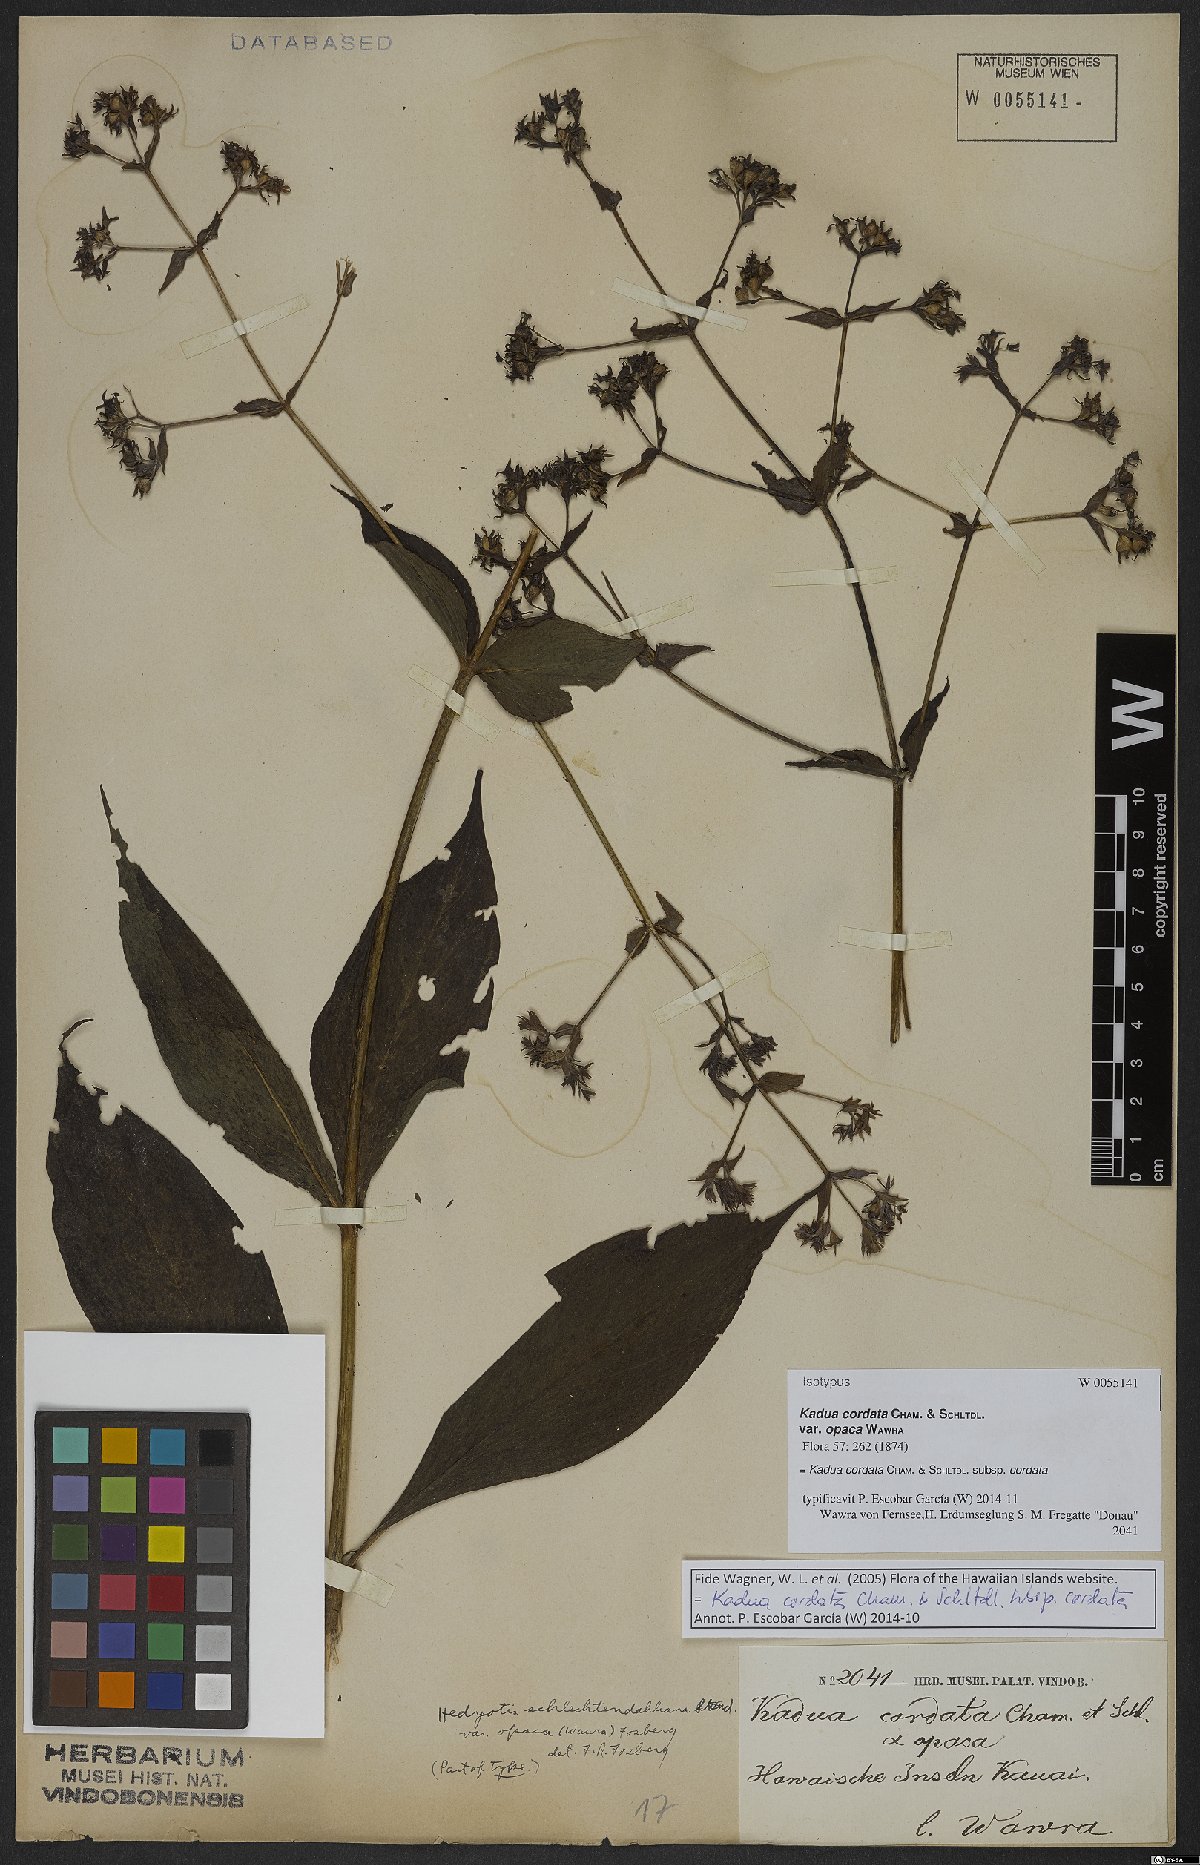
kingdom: Plantae
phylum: Tracheophyta
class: Magnoliopsida
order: Gentianales
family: Rubiaceae
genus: Kadua
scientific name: Kadua cordata
